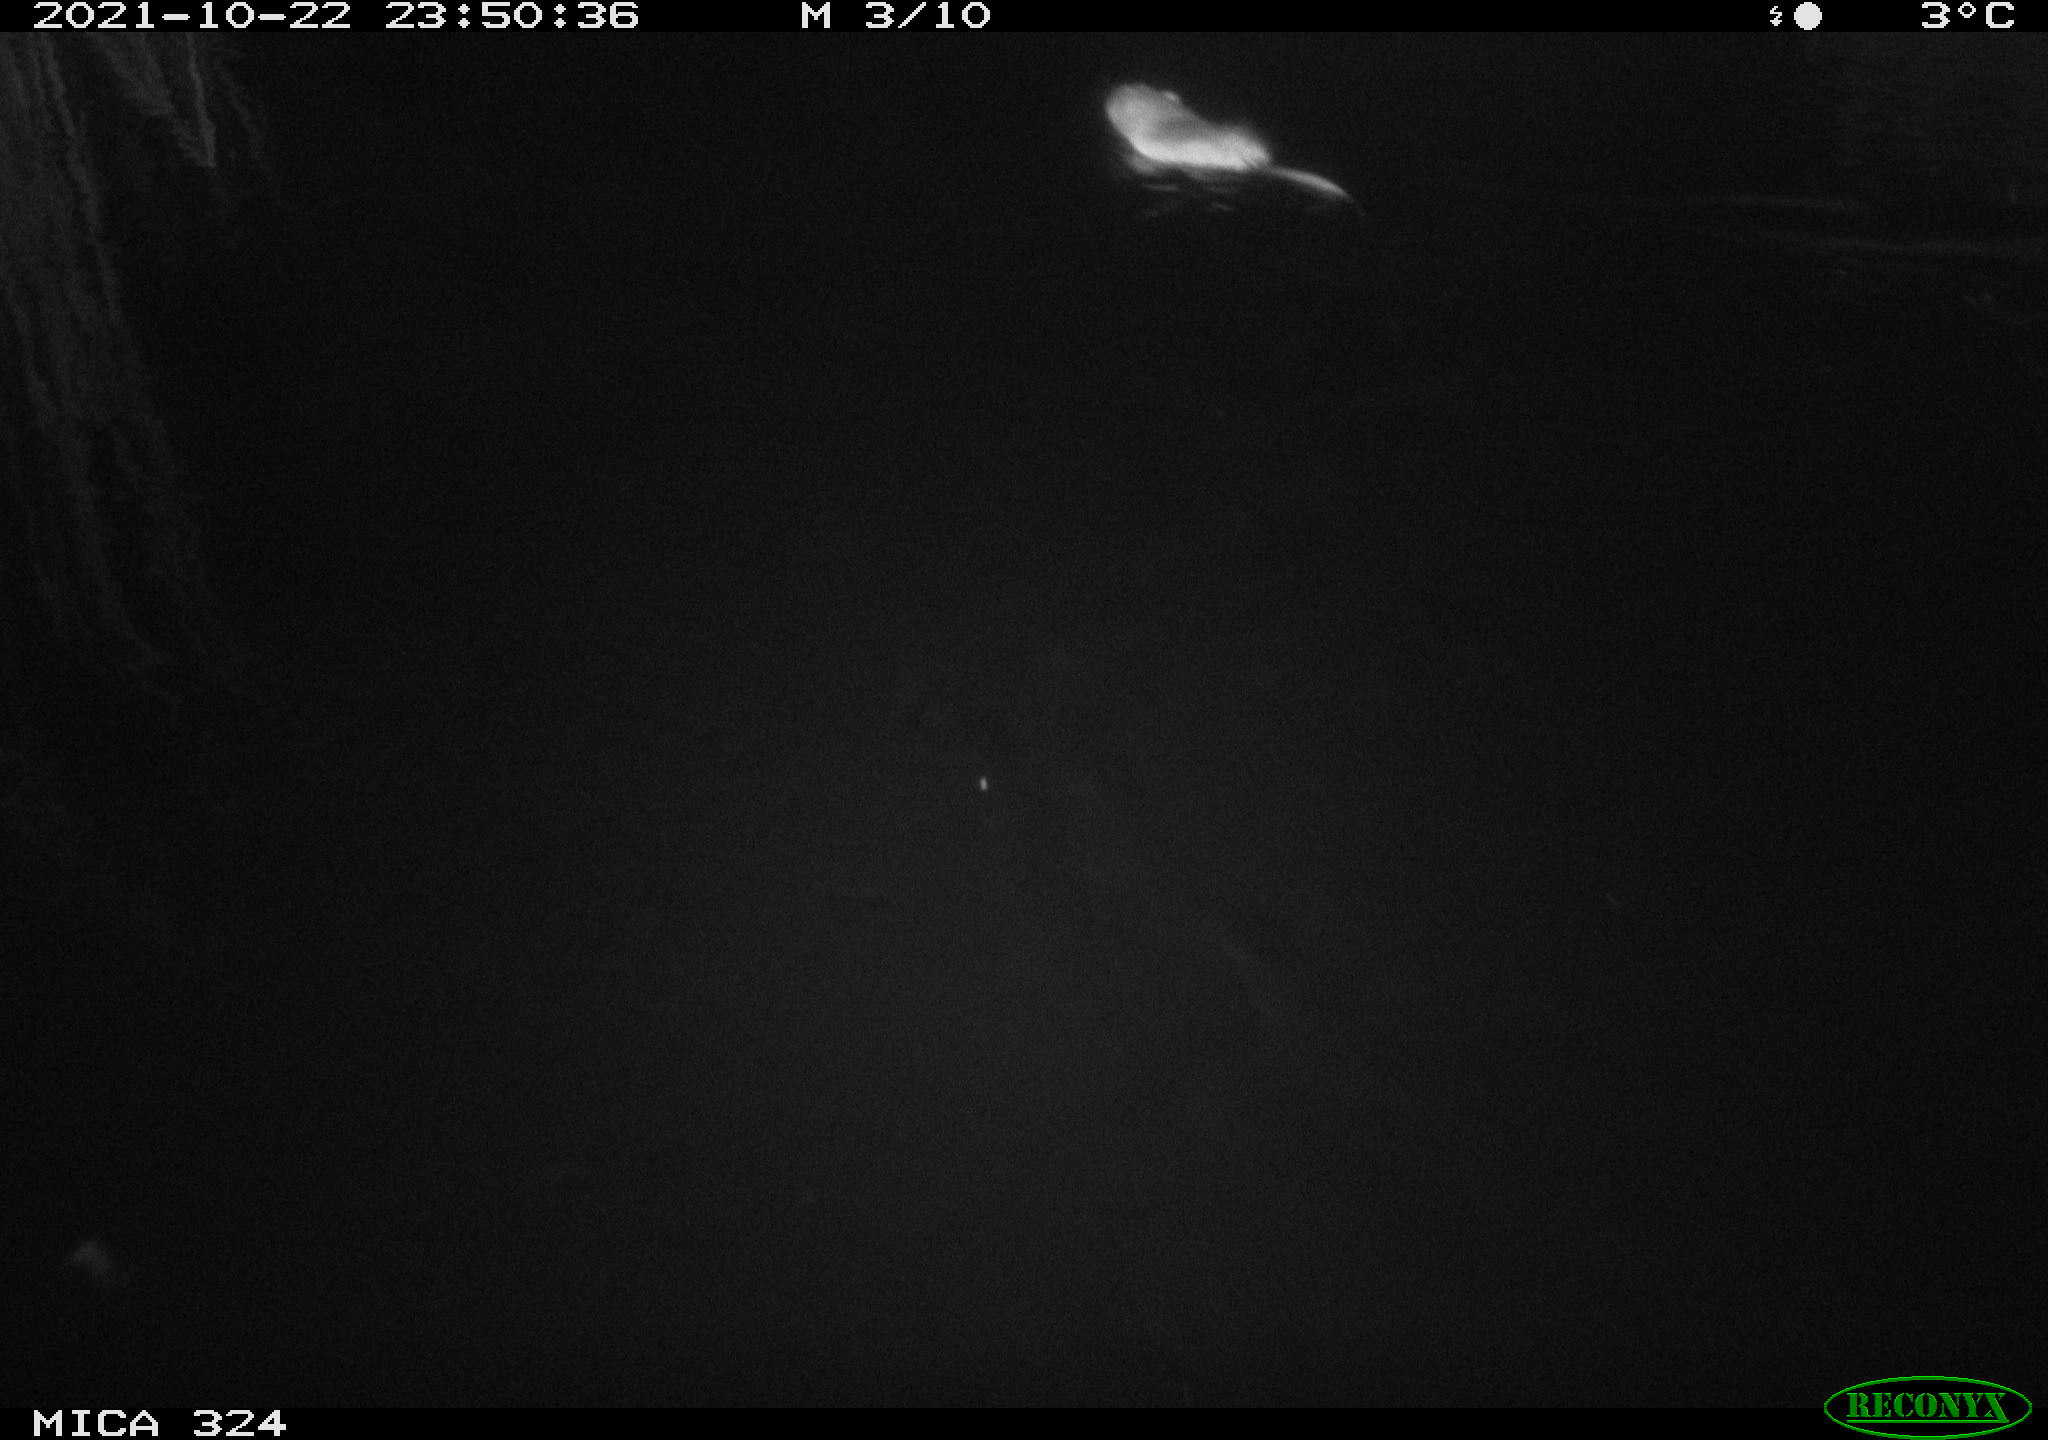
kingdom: Animalia
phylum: Chordata
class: Mammalia
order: Rodentia
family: Cricetidae
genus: Ondatra
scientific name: Ondatra zibethicus
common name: Muskrat
